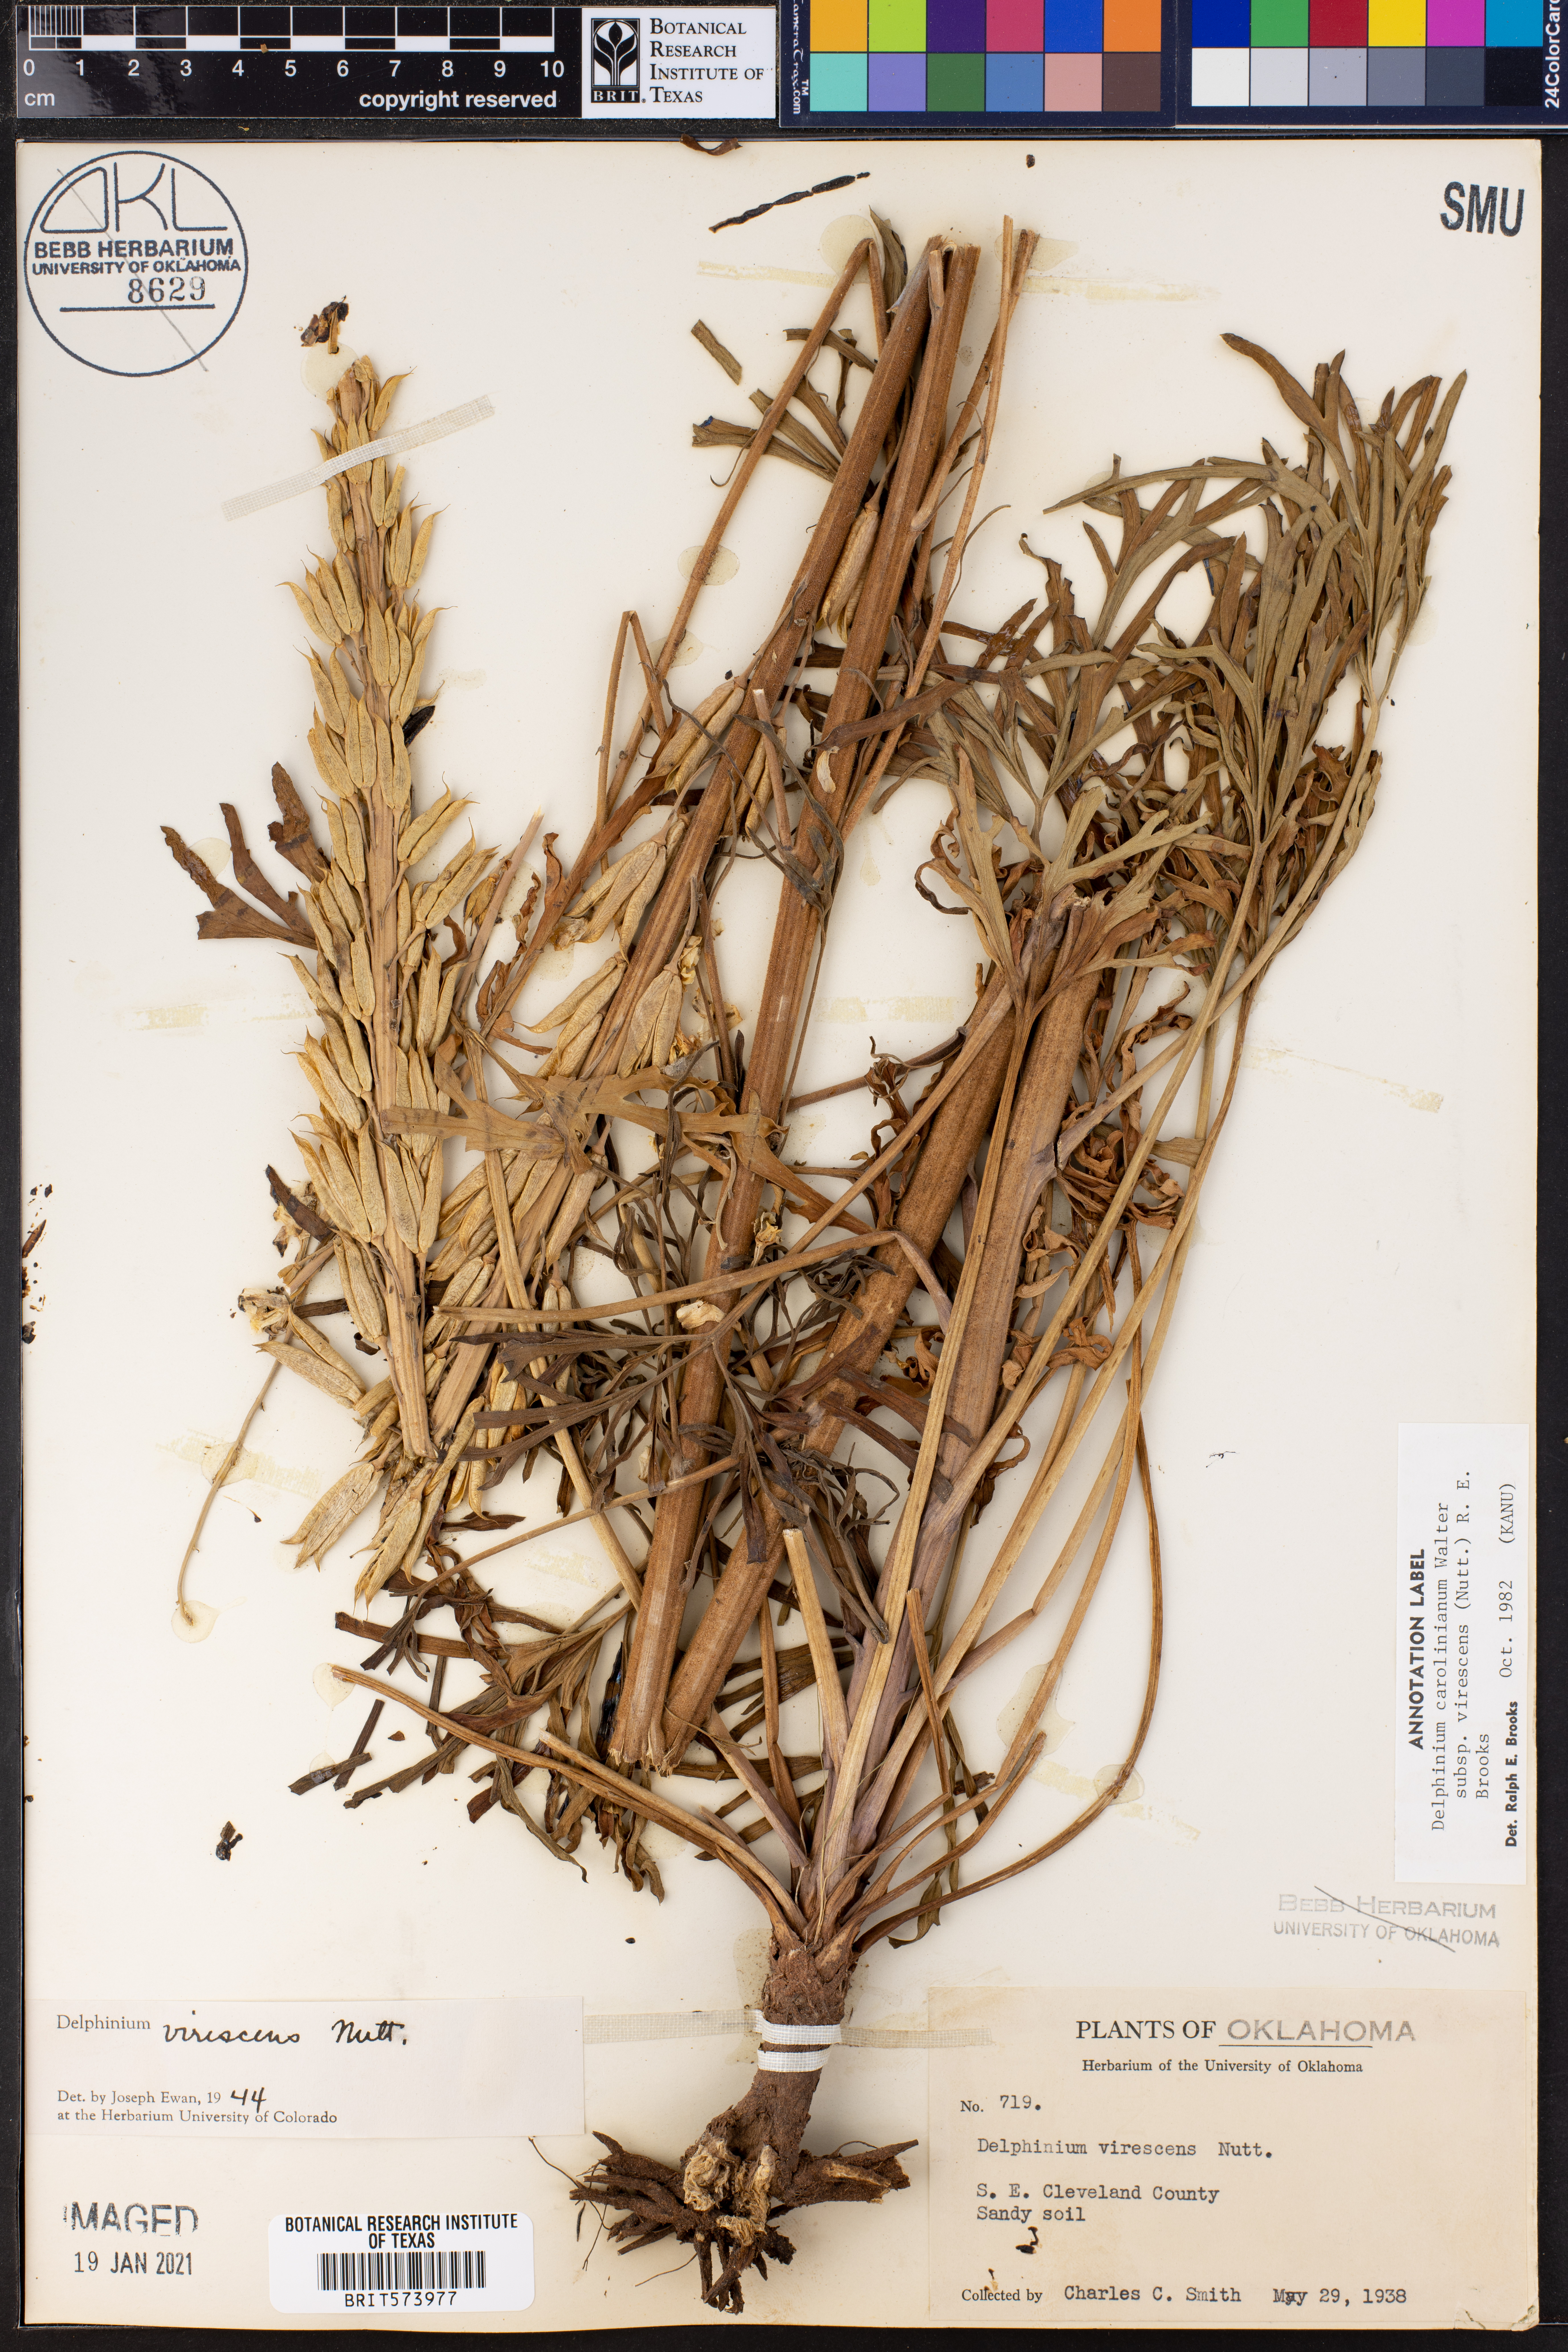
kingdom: Plantae
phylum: Tracheophyta
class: Magnoliopsida
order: Ranunculales
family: Ranunculaceae
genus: Delphinium
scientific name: Delphinium carolinianum
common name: Carolina larkspur
